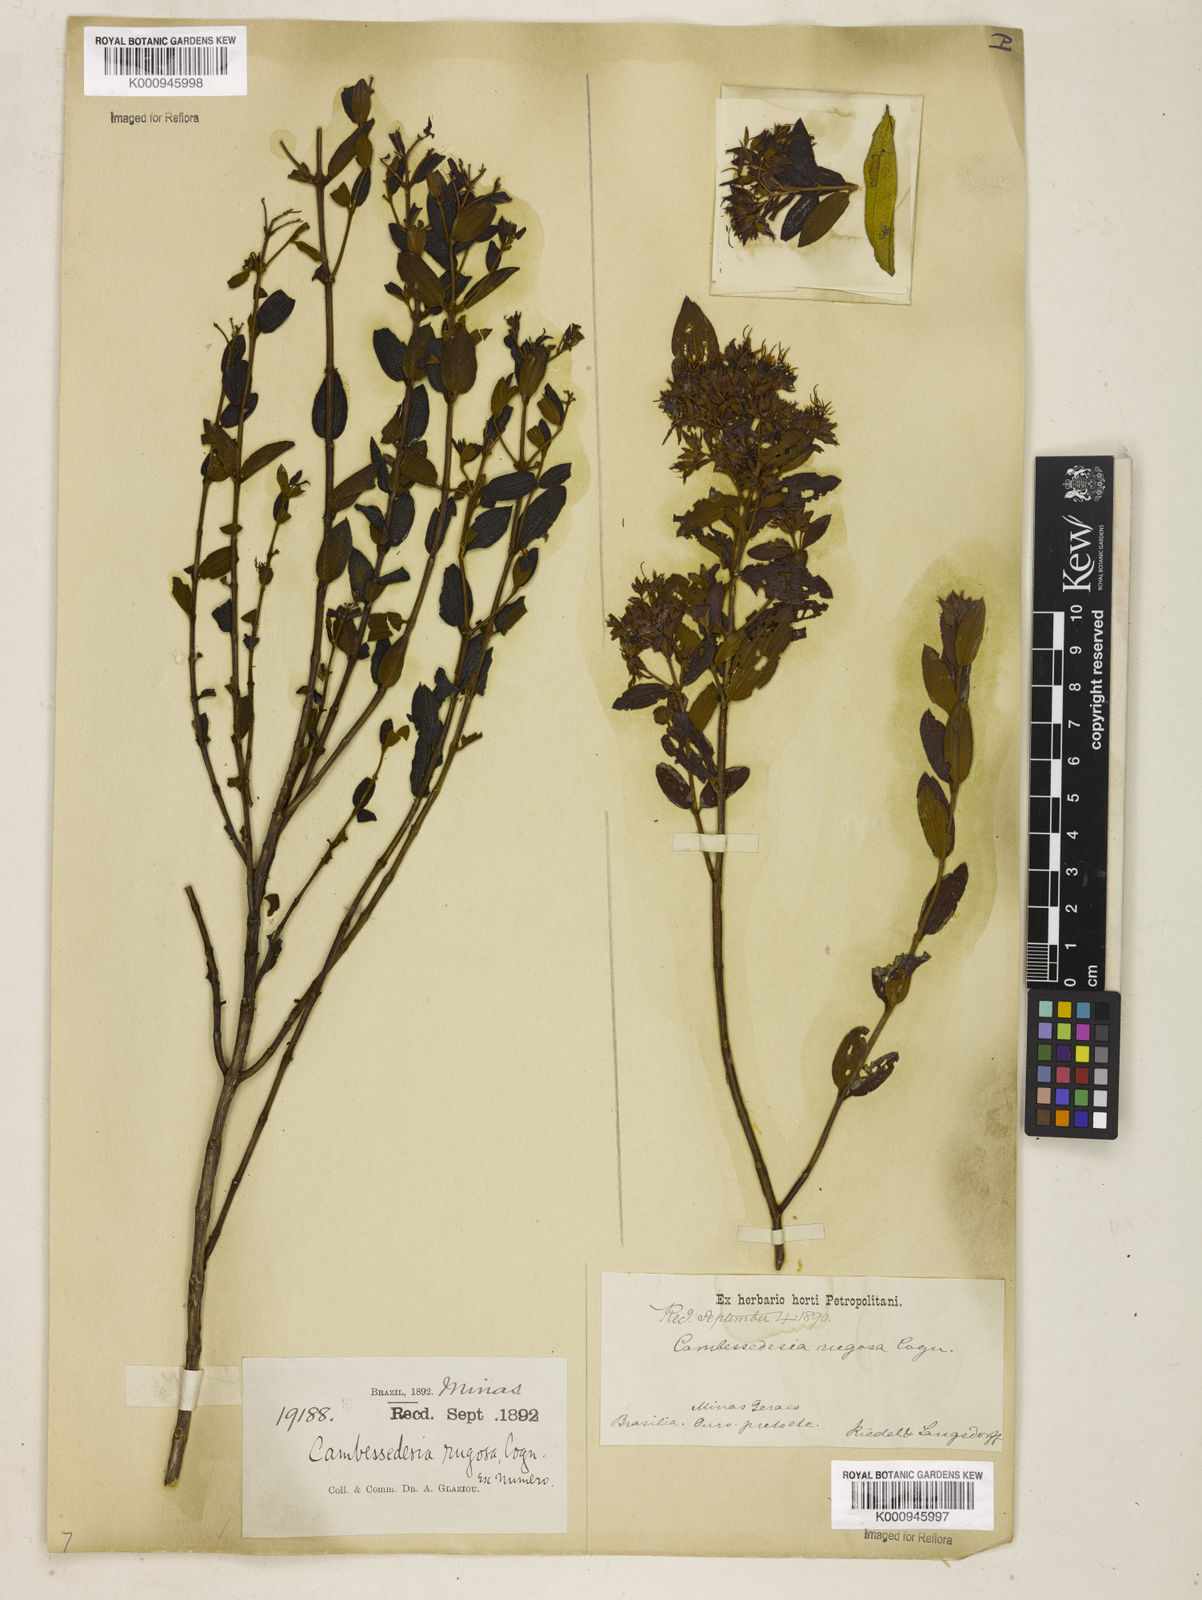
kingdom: Plantae
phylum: Tracheophyta
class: Magnoliopsida
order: Myrtales
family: Melastomataceae
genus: Cambessedesia
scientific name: Cambessedesia corymbosa
